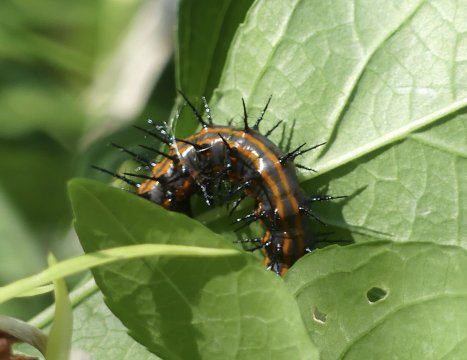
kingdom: Animalia
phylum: Arthropoda
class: Insecta
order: Lepidoptera
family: Nymphalidae
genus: Dione
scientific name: Dione vanillae
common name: Gulf Fritillary
